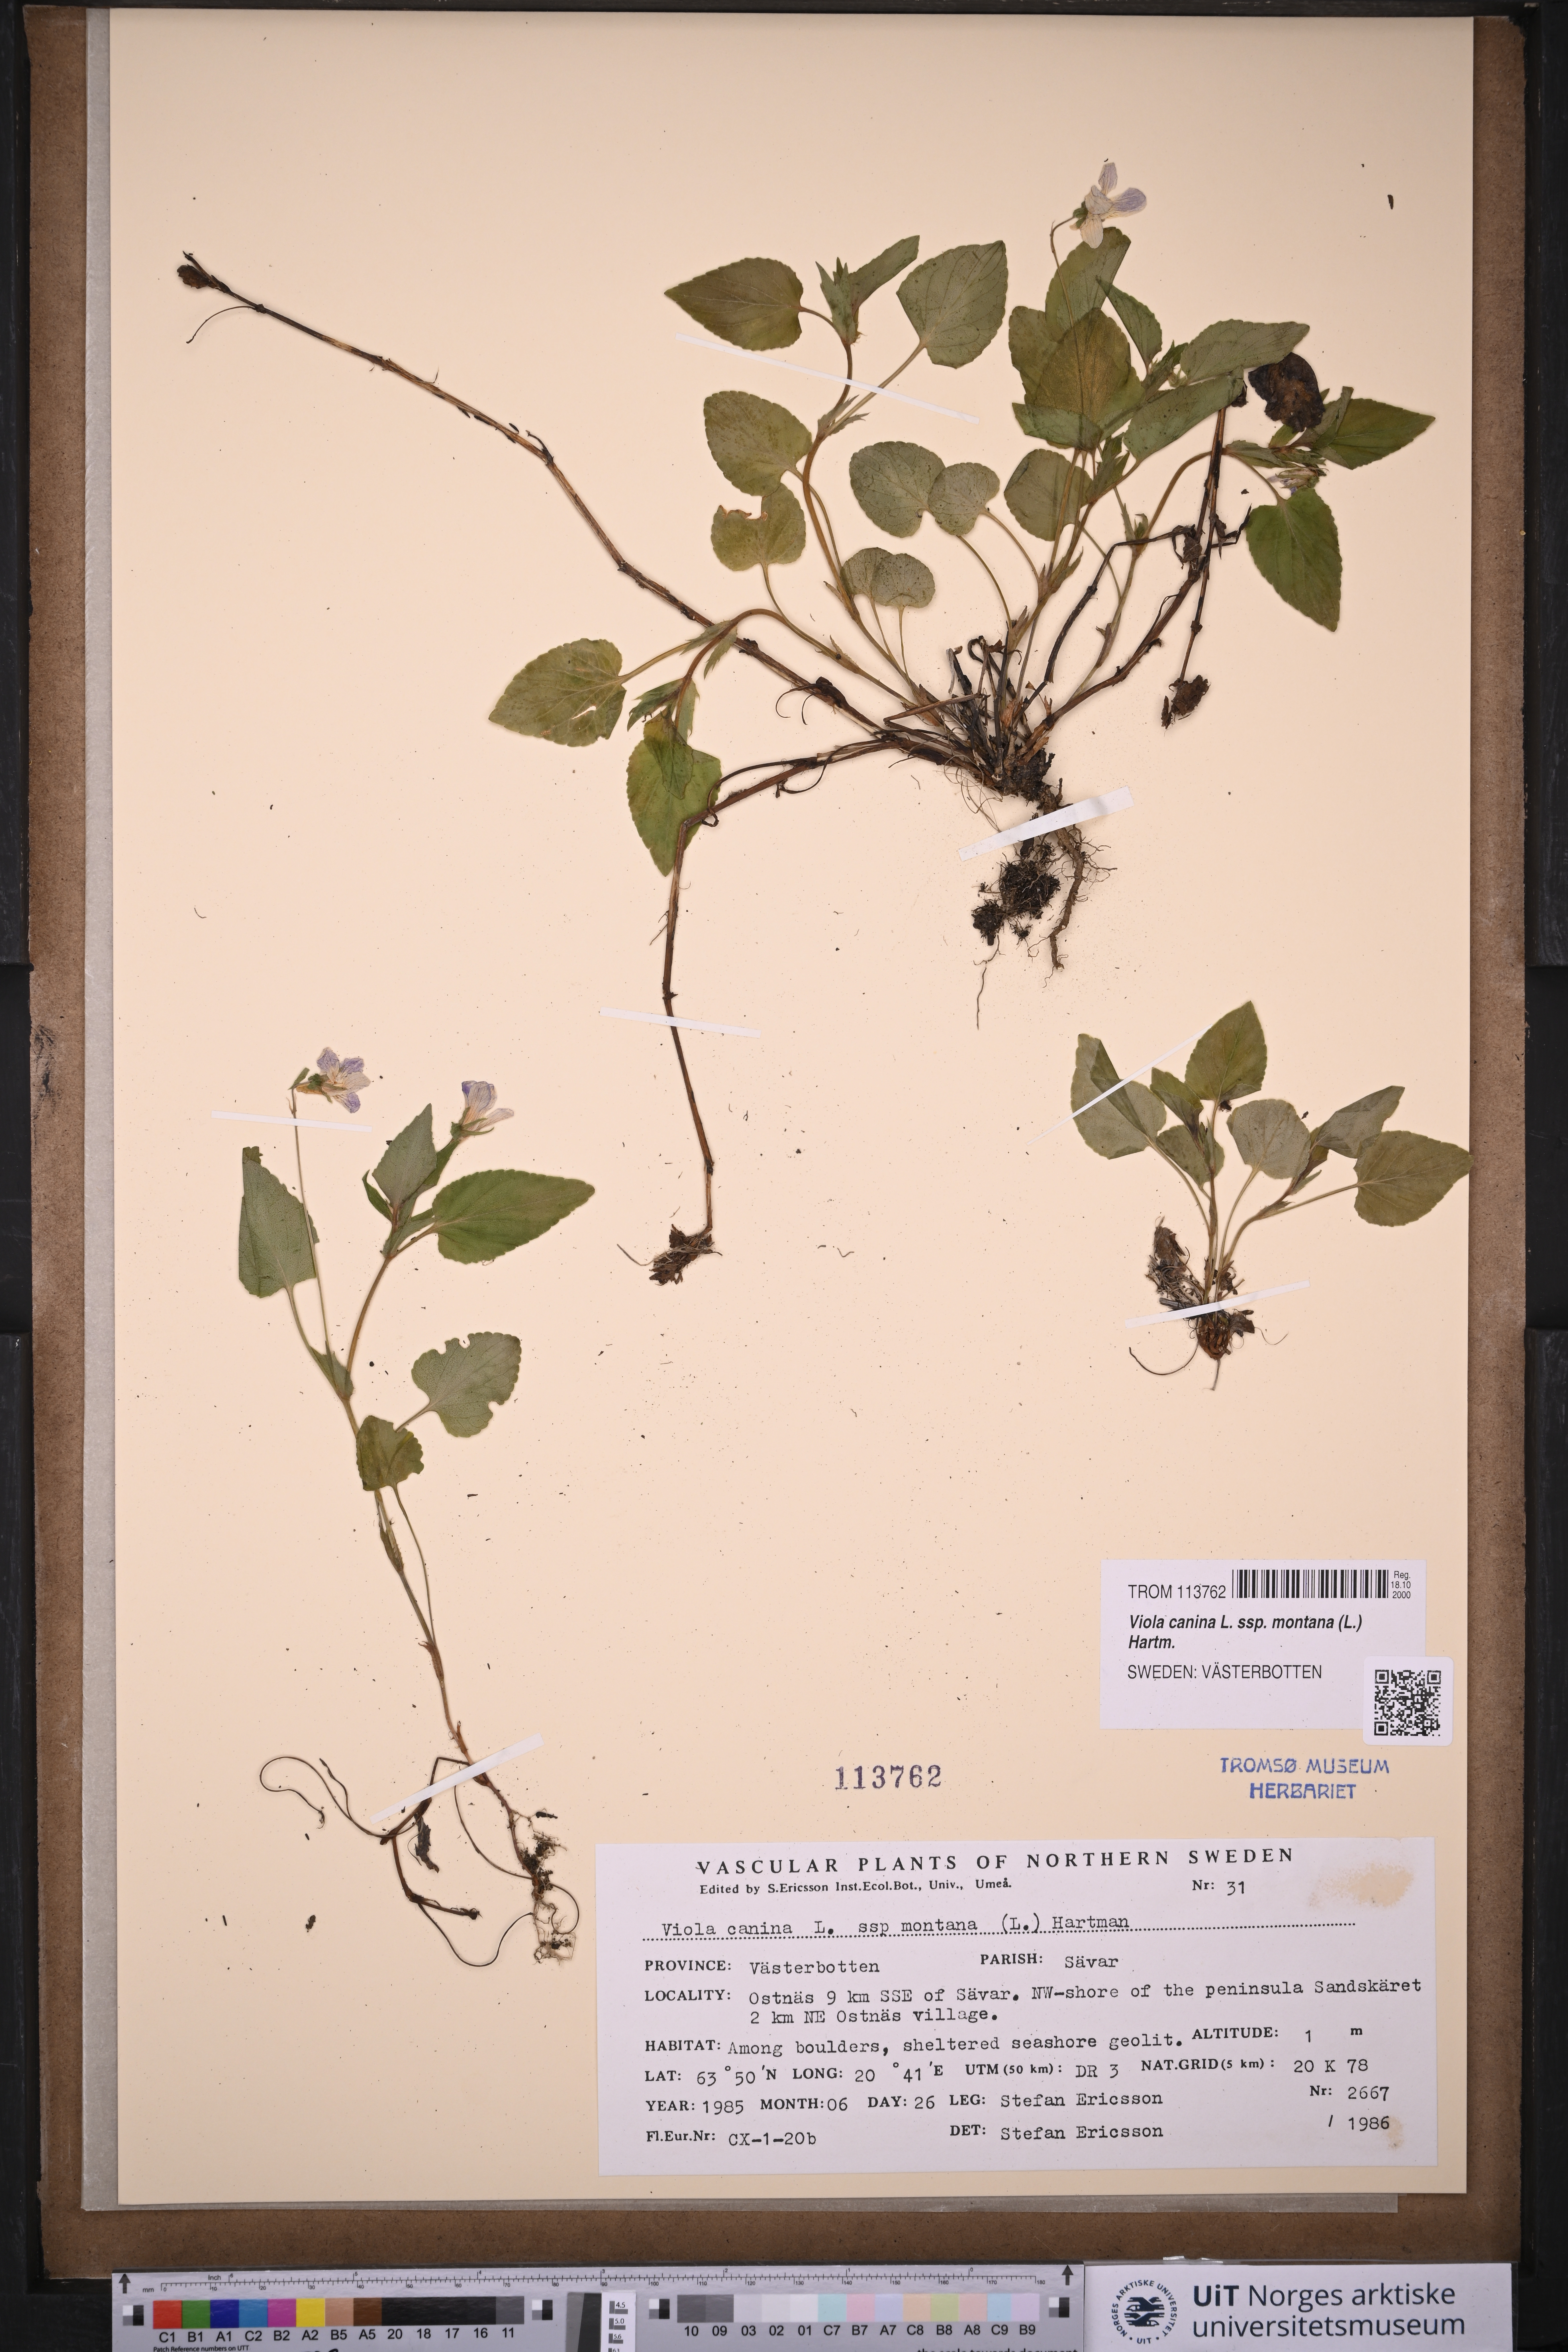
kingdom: Plantae
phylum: Tracheophyta
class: Magnoliopsida
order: Malpighiales
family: Violaceae
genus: Viola
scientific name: Viola ruppii
